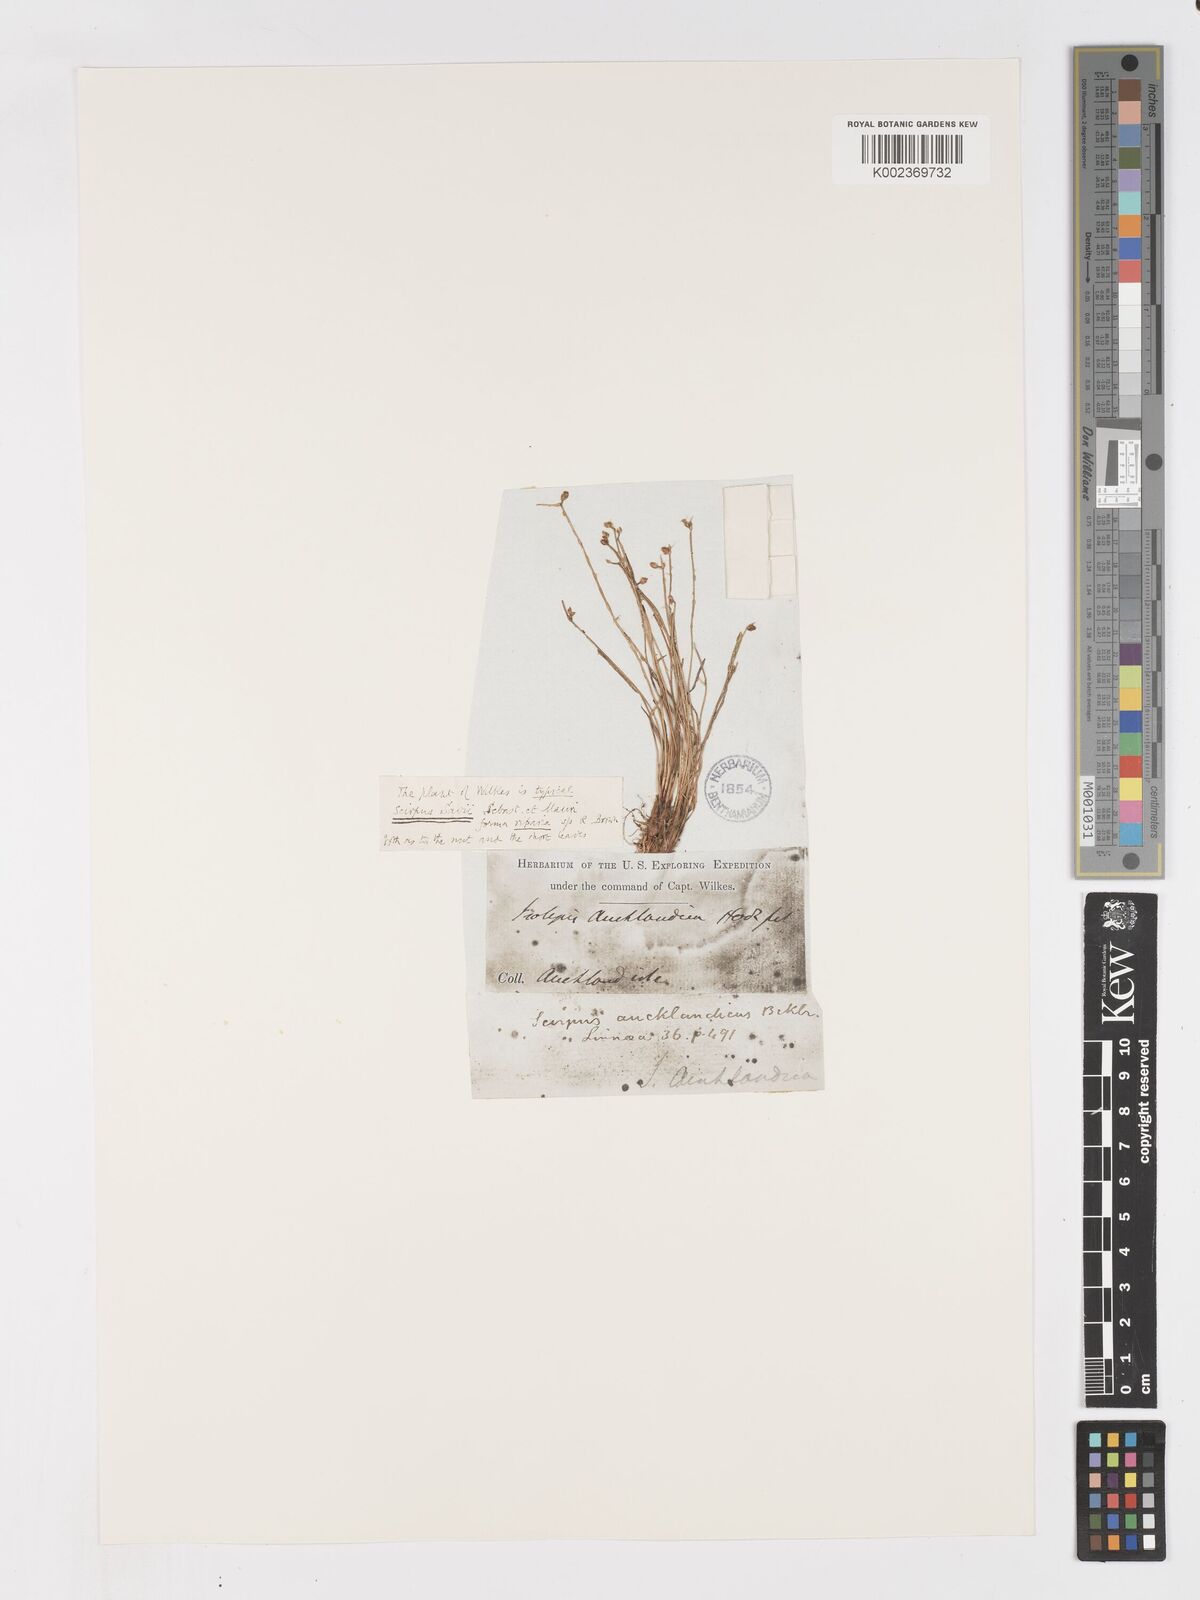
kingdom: Plantae
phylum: Tracheophyta
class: Liliopsida
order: Poales
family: Cyperaceae
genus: Isolepis
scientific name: Isolepis cernua
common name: Slender club-rush
